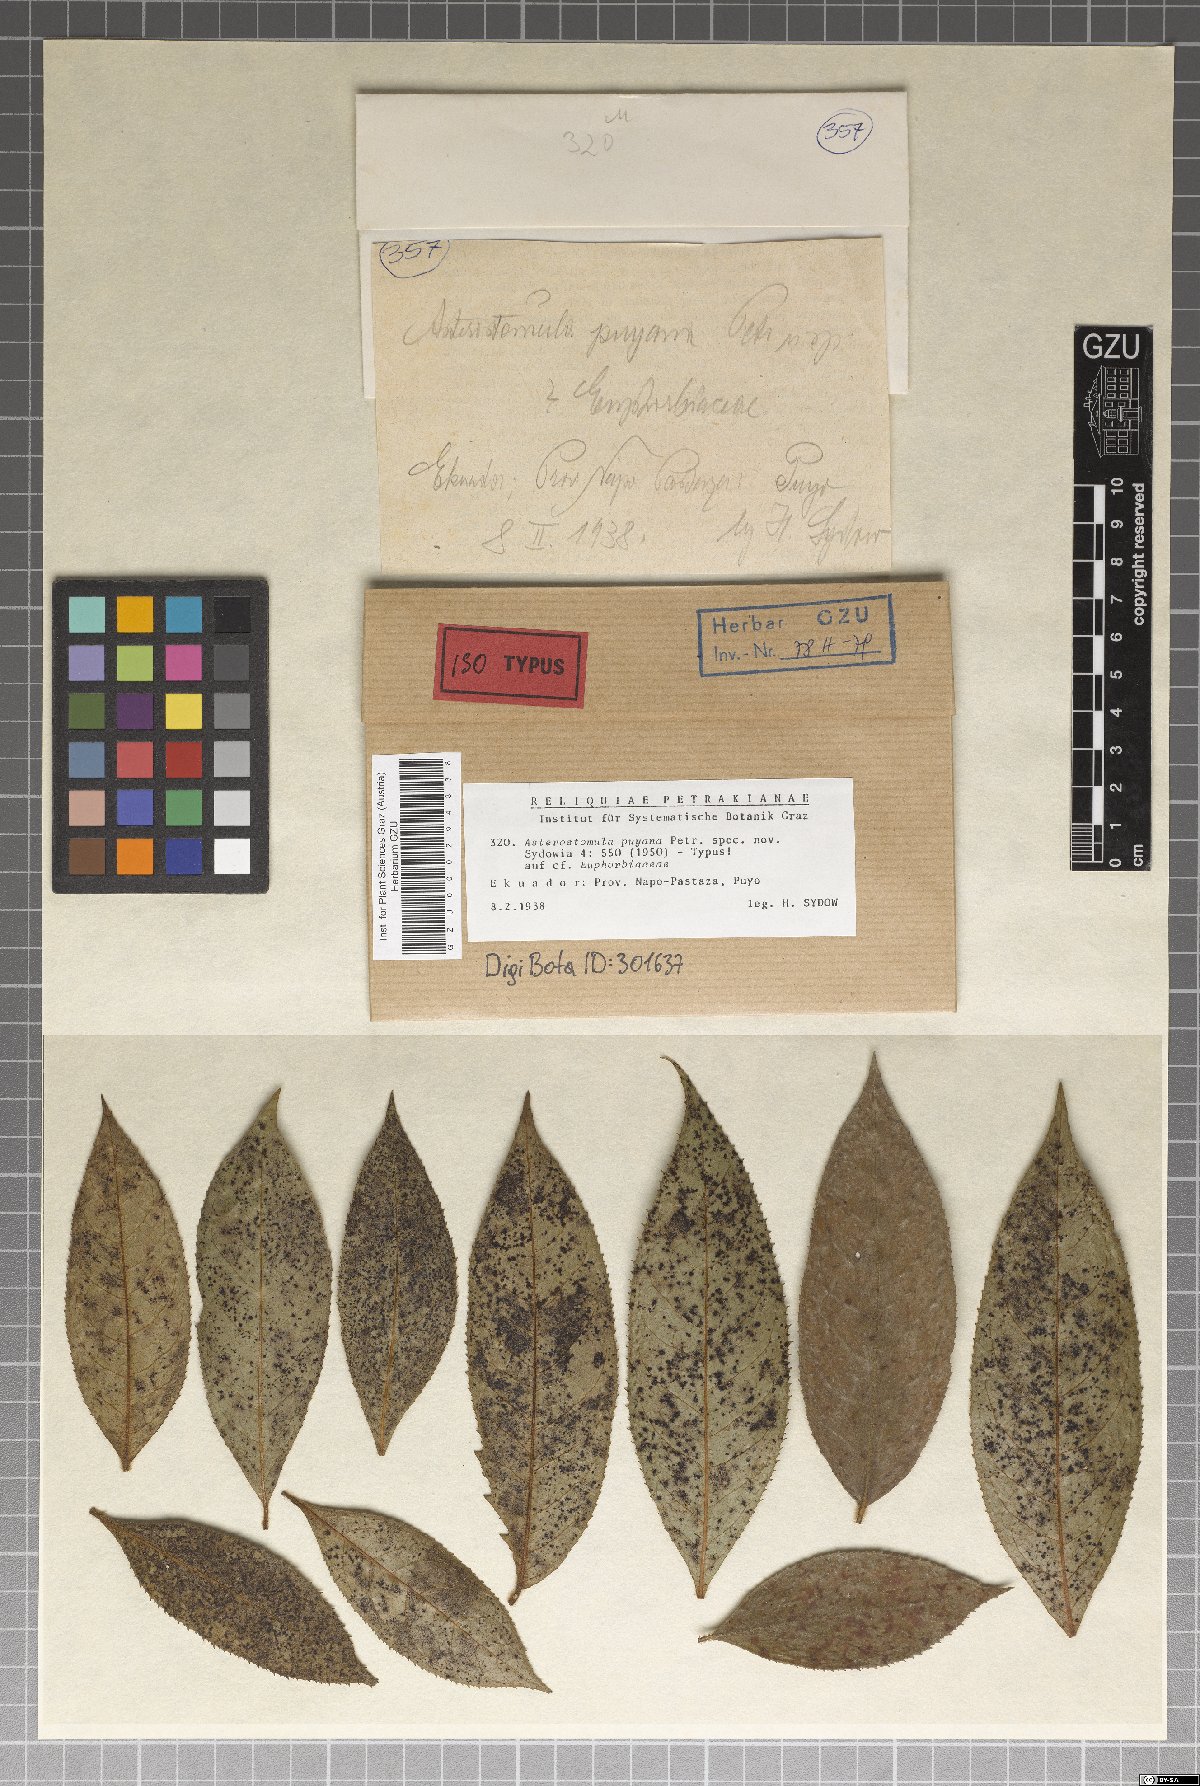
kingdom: Fungi
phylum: Ascomycota
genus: Asterostomula
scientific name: Asterostomula puyana
